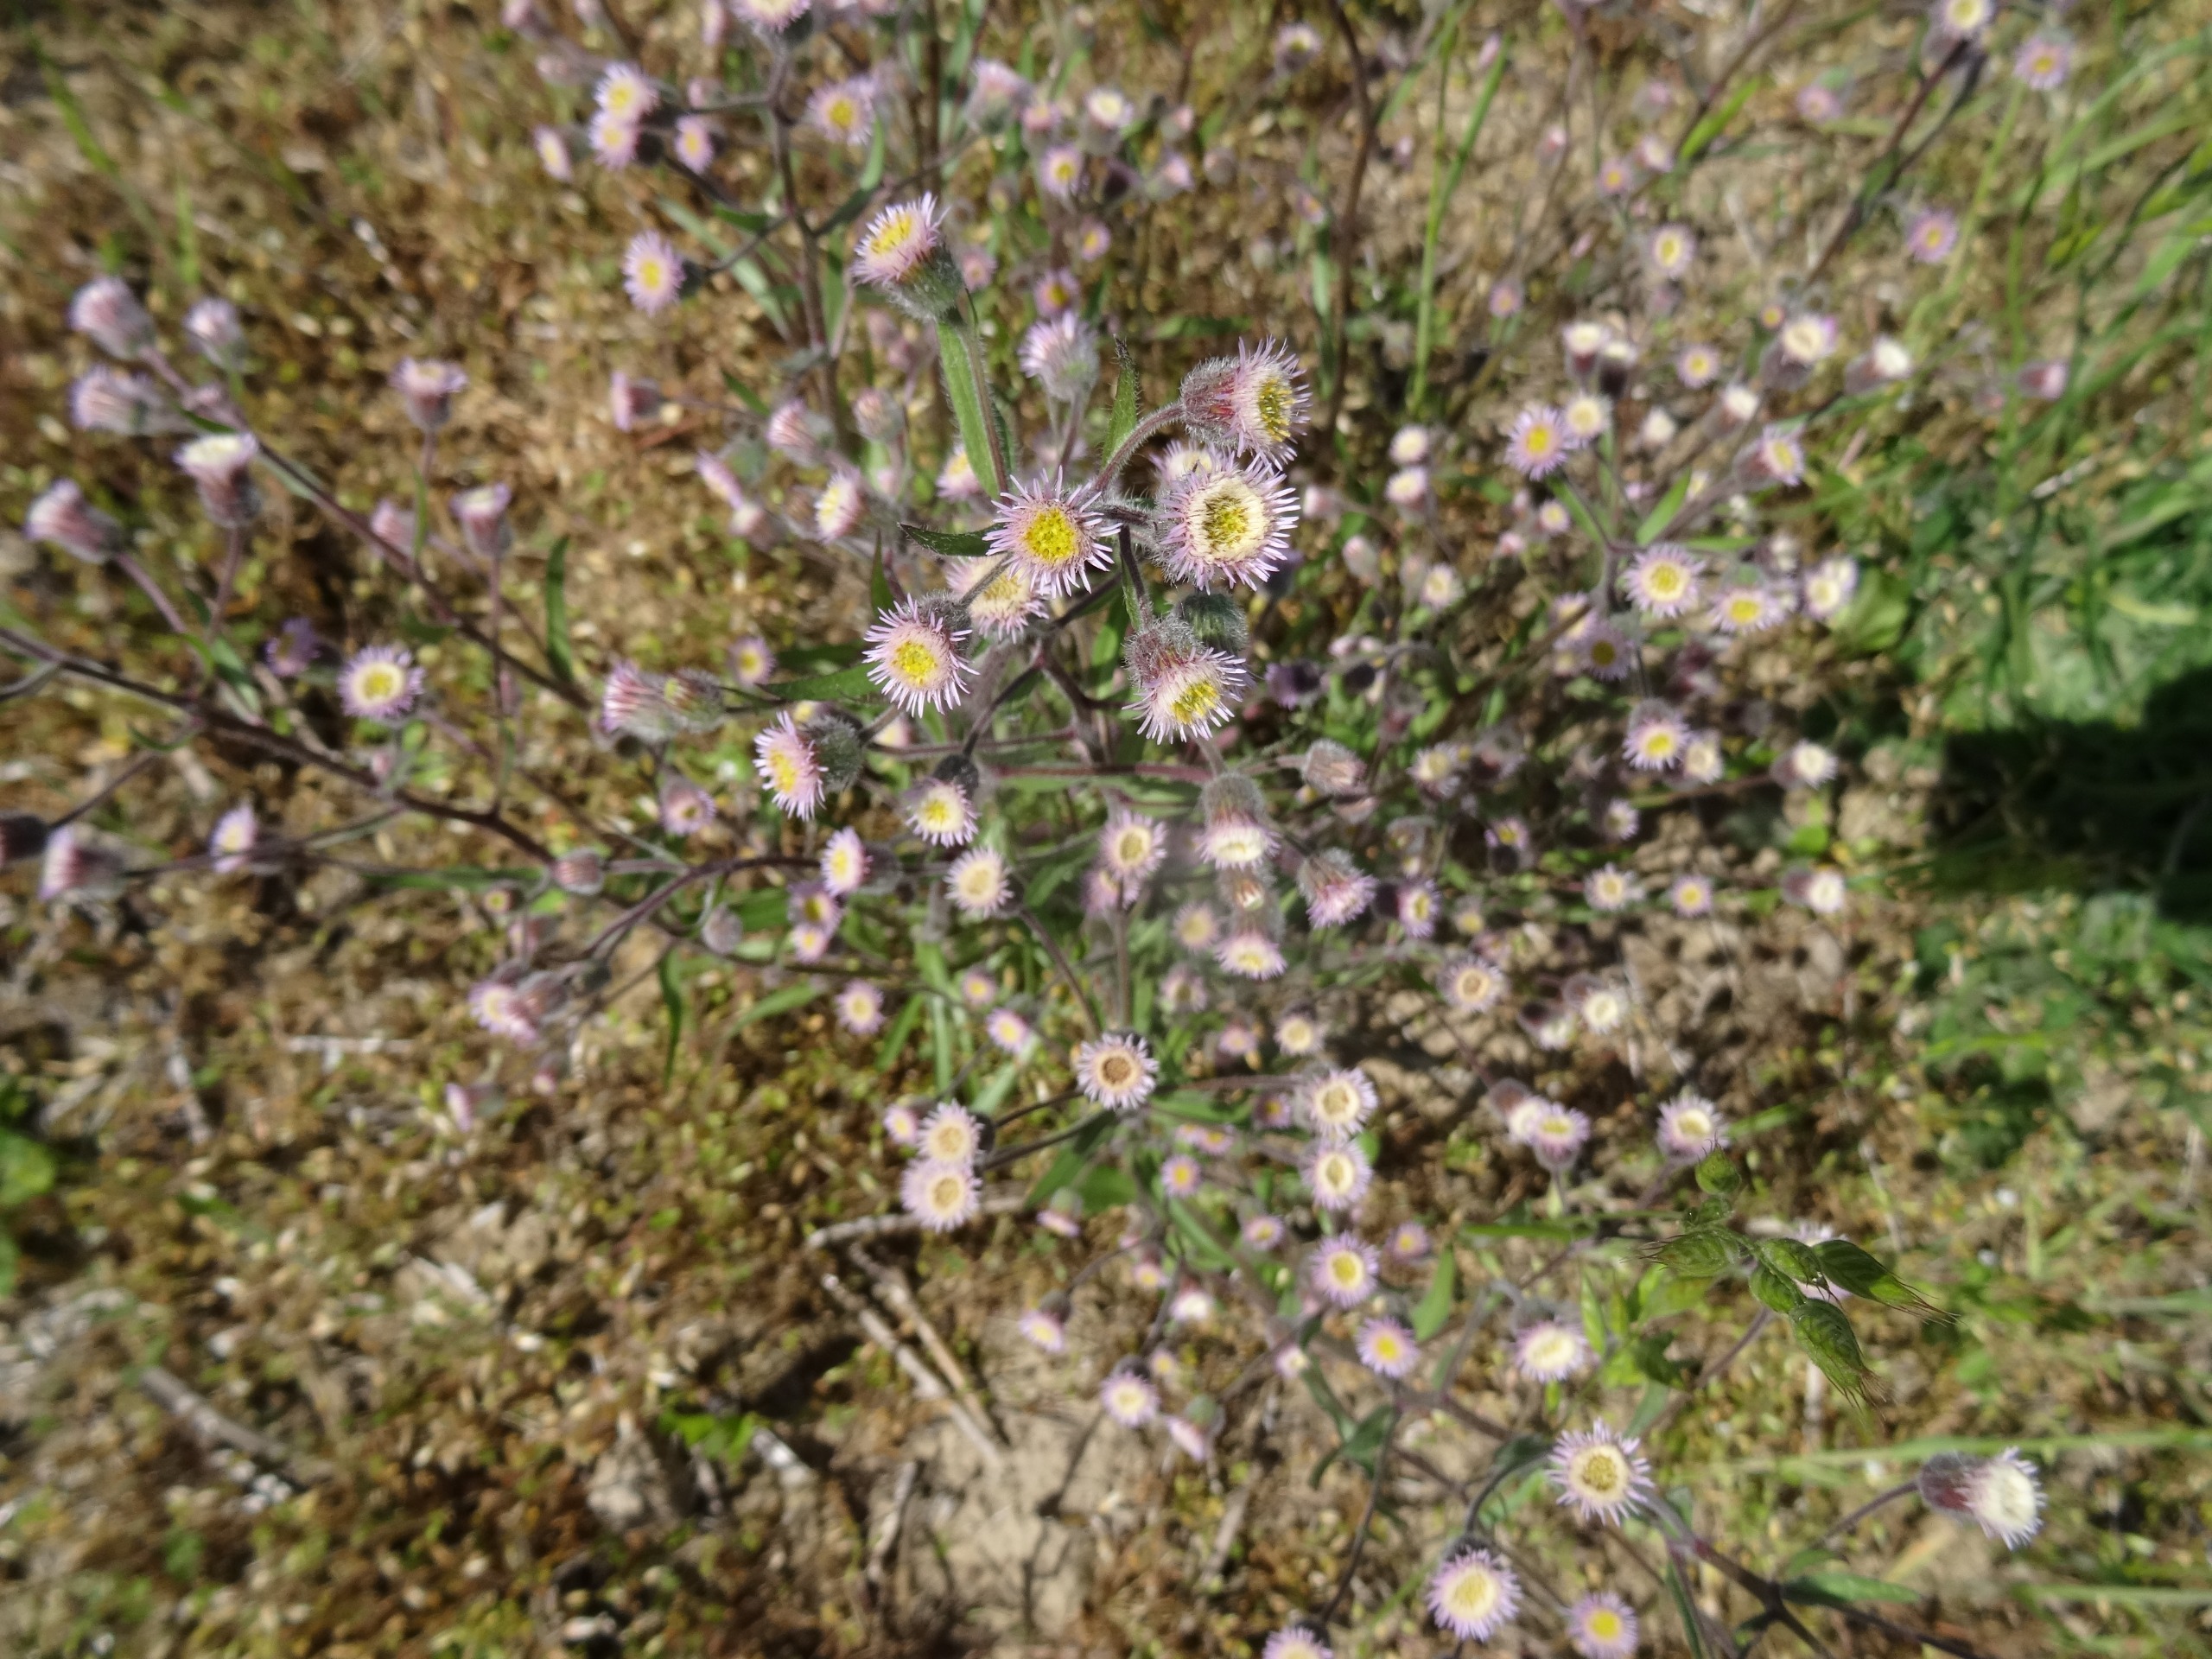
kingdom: Plantae
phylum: Tracheophyta
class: Magnoliopsida
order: Asterales
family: Asteraceae
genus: Erigeron
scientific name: Erigeron acris
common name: Bitter bakkestjerne
